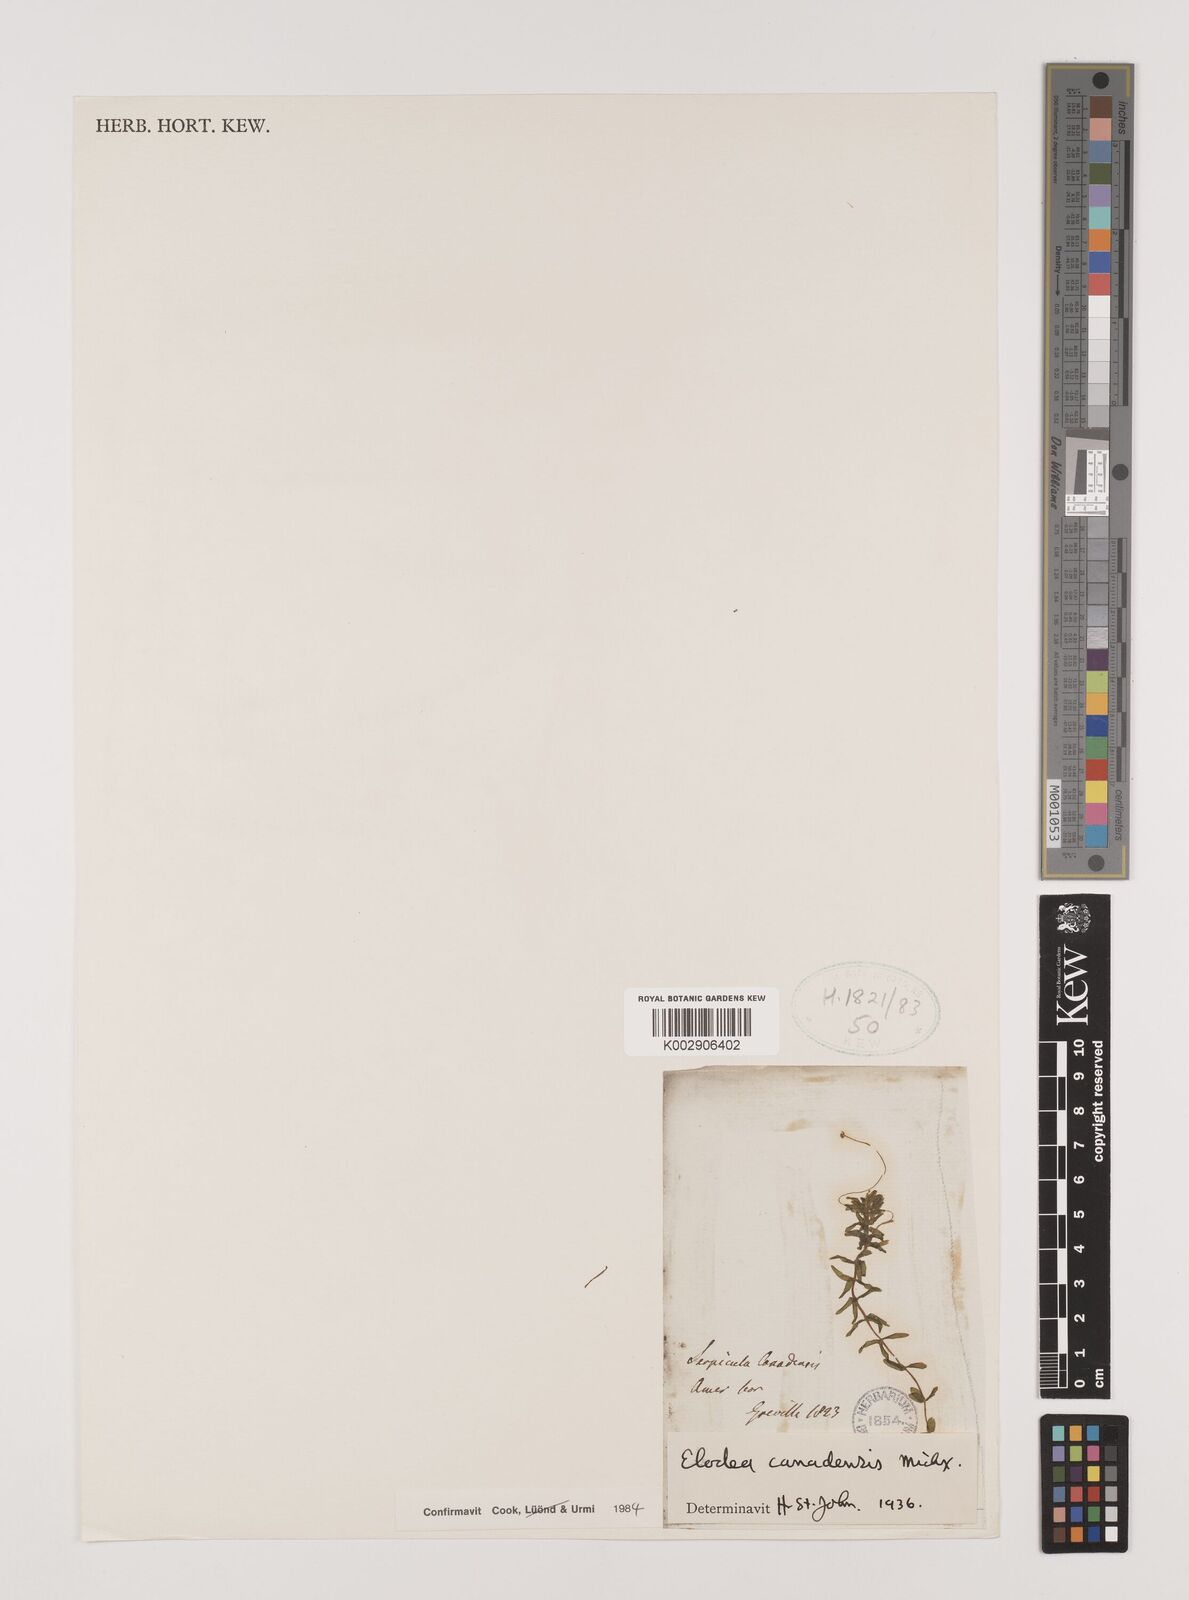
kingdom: Plantae
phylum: Tracheophyta
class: Liliopsida
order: Alismatales
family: Hydrocharitaceae
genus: Elodea
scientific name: Elodea canadensis
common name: Canadian waterweed
